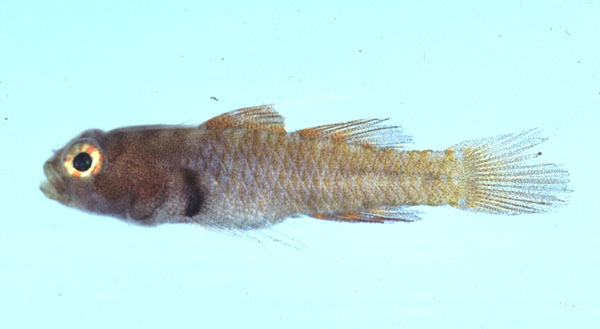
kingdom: Animalia
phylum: Chordata
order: Perciformes
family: Gobiidae
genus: Eviota
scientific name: Eviota monostigma
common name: Singlespot eviota
